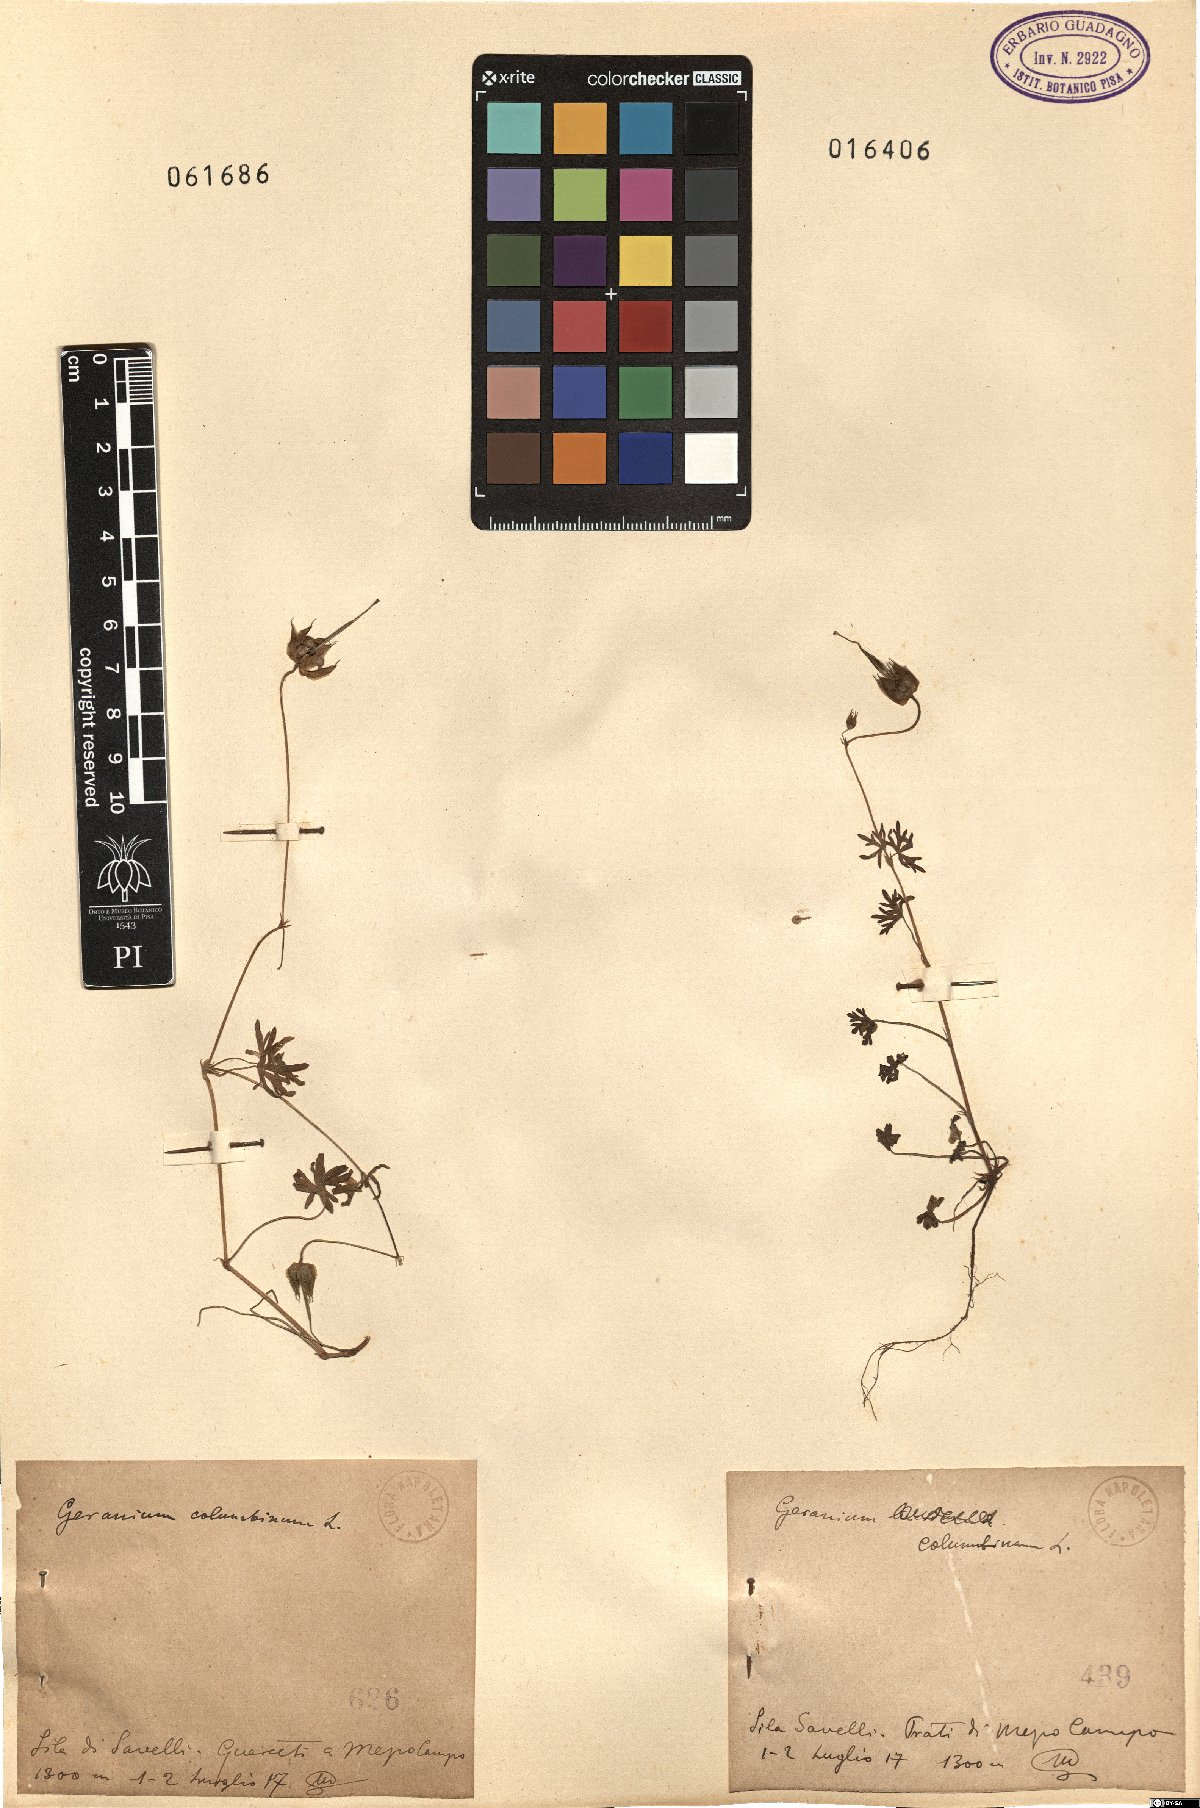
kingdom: Plantae
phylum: Tracheophyta
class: Magnoliopsida
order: Geraniales
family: Geraniaceae
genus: Geranium
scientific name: Geranium columbinum
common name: Long-stalked crane's-bill
